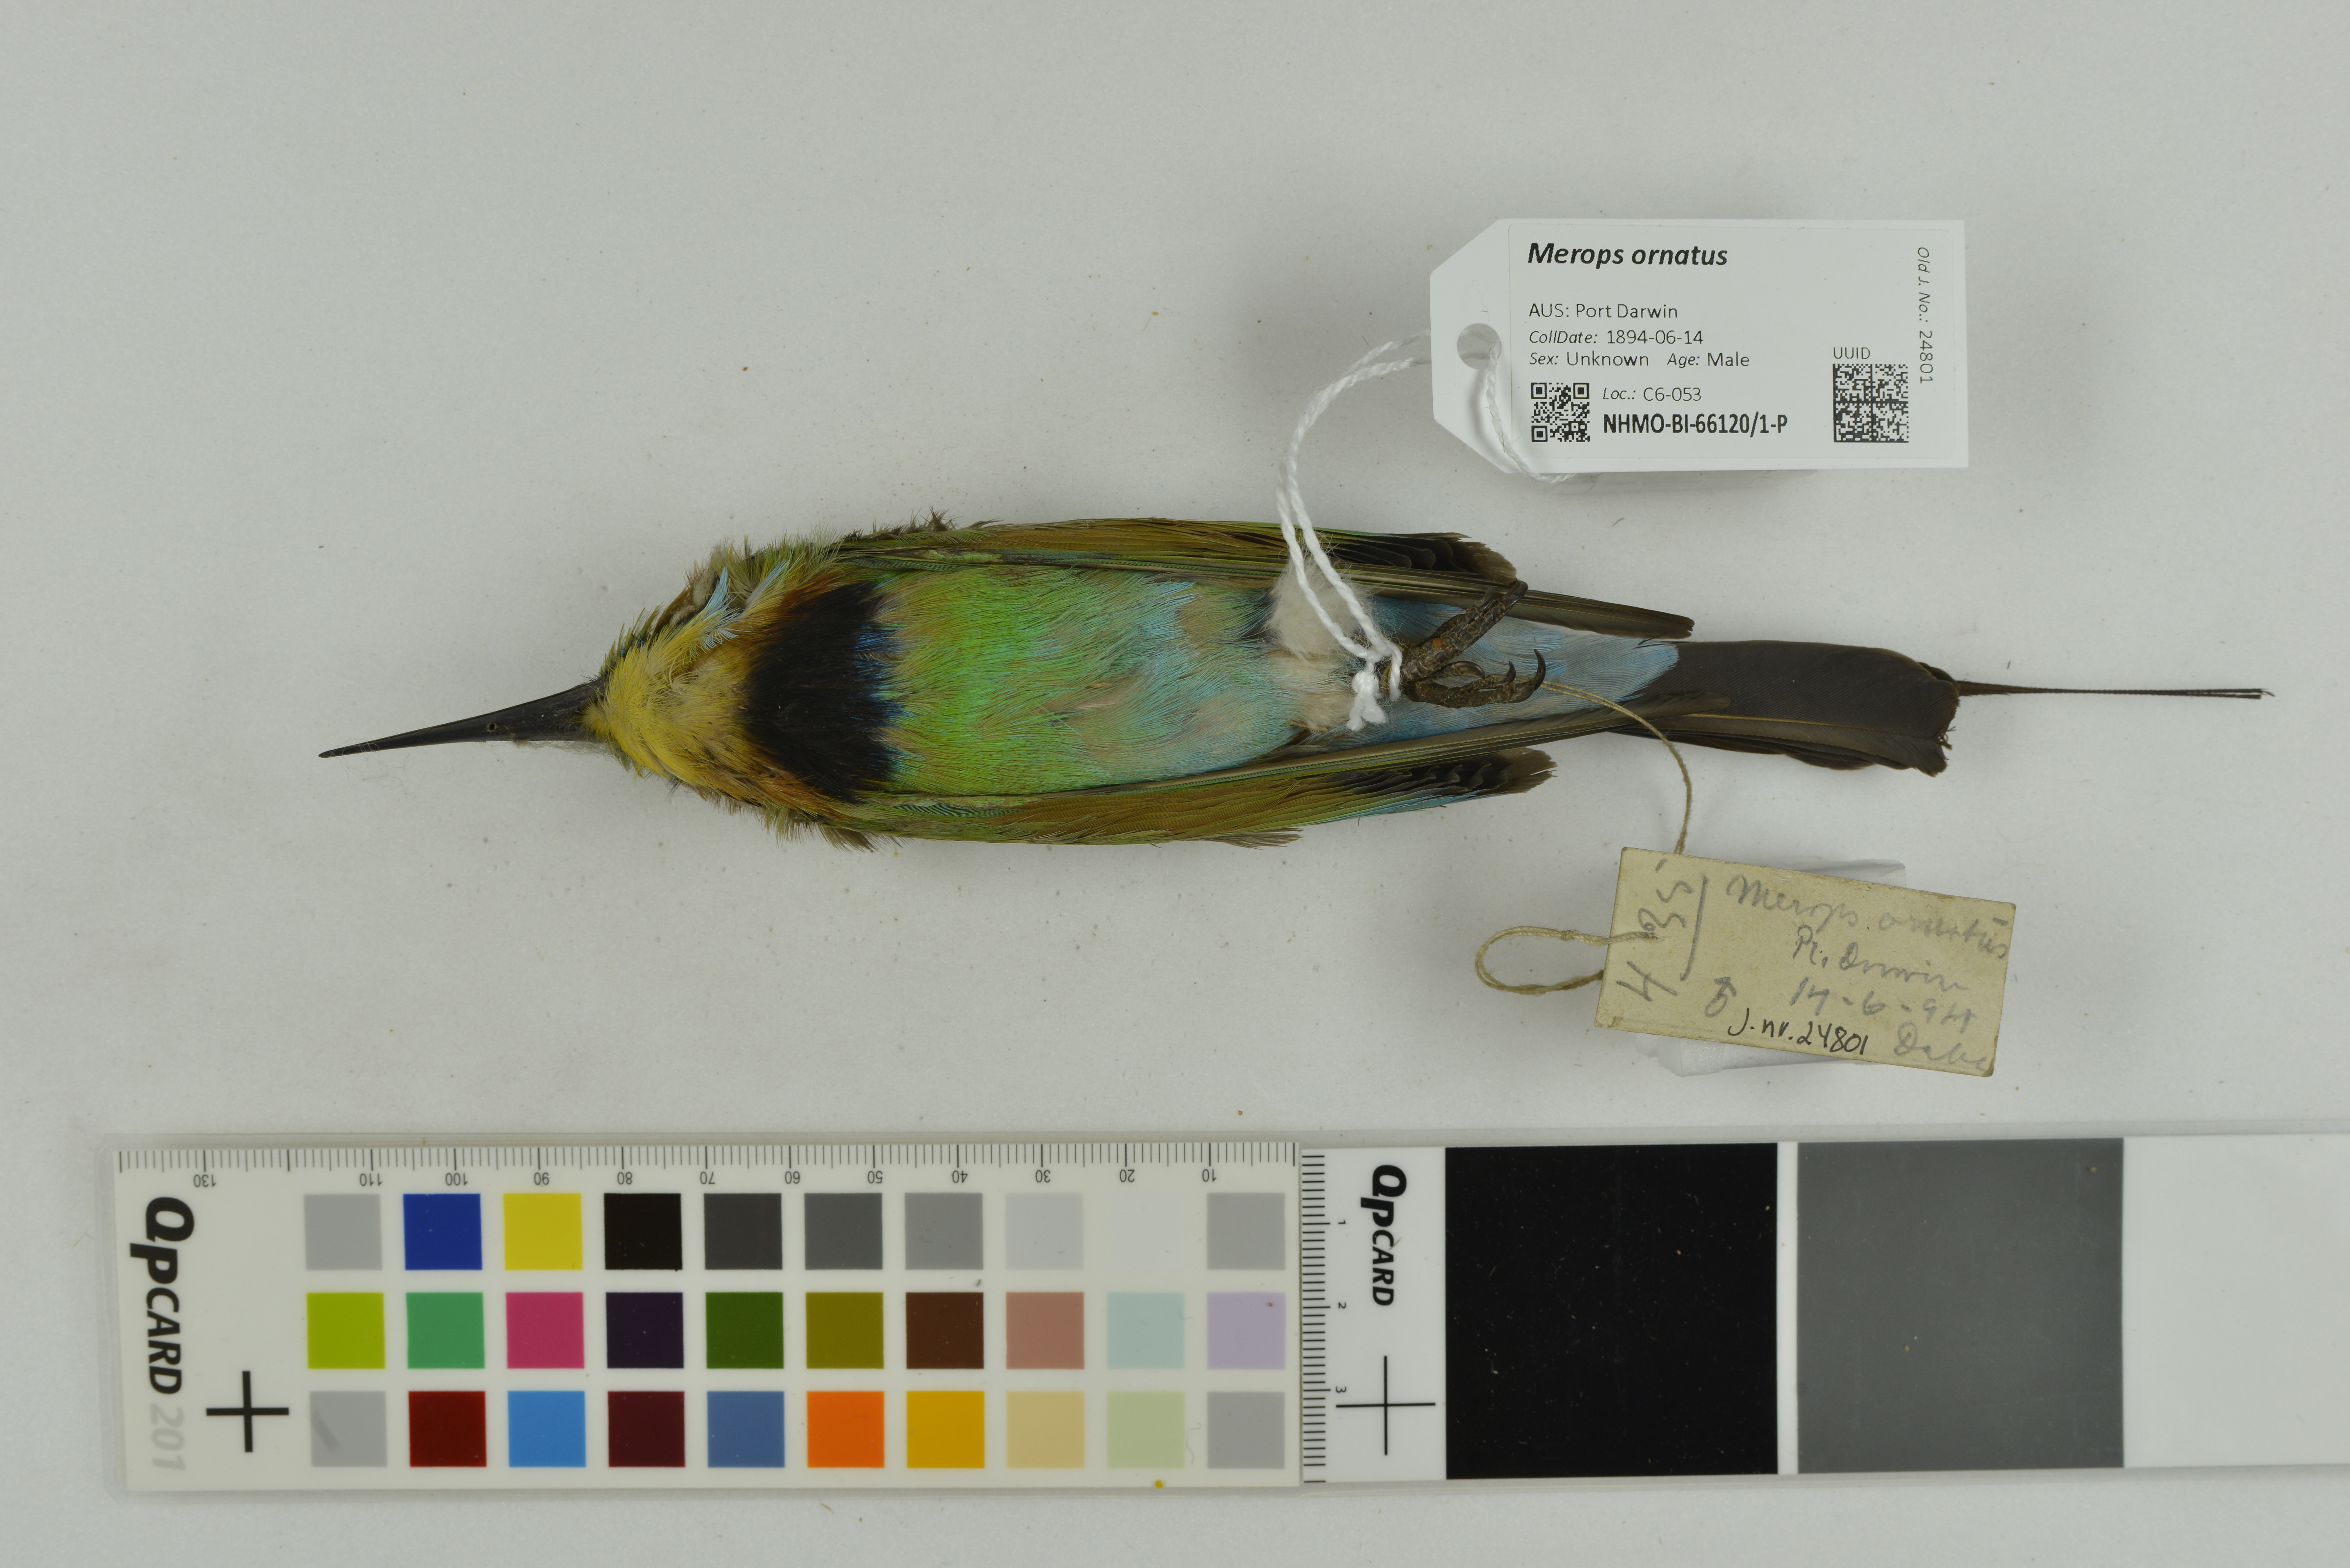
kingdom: Animalia
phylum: Chordata
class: Aves
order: Coraciiformes
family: Meropidae
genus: Merops
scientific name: Merops ornatus
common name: Rainbow bee-eater
